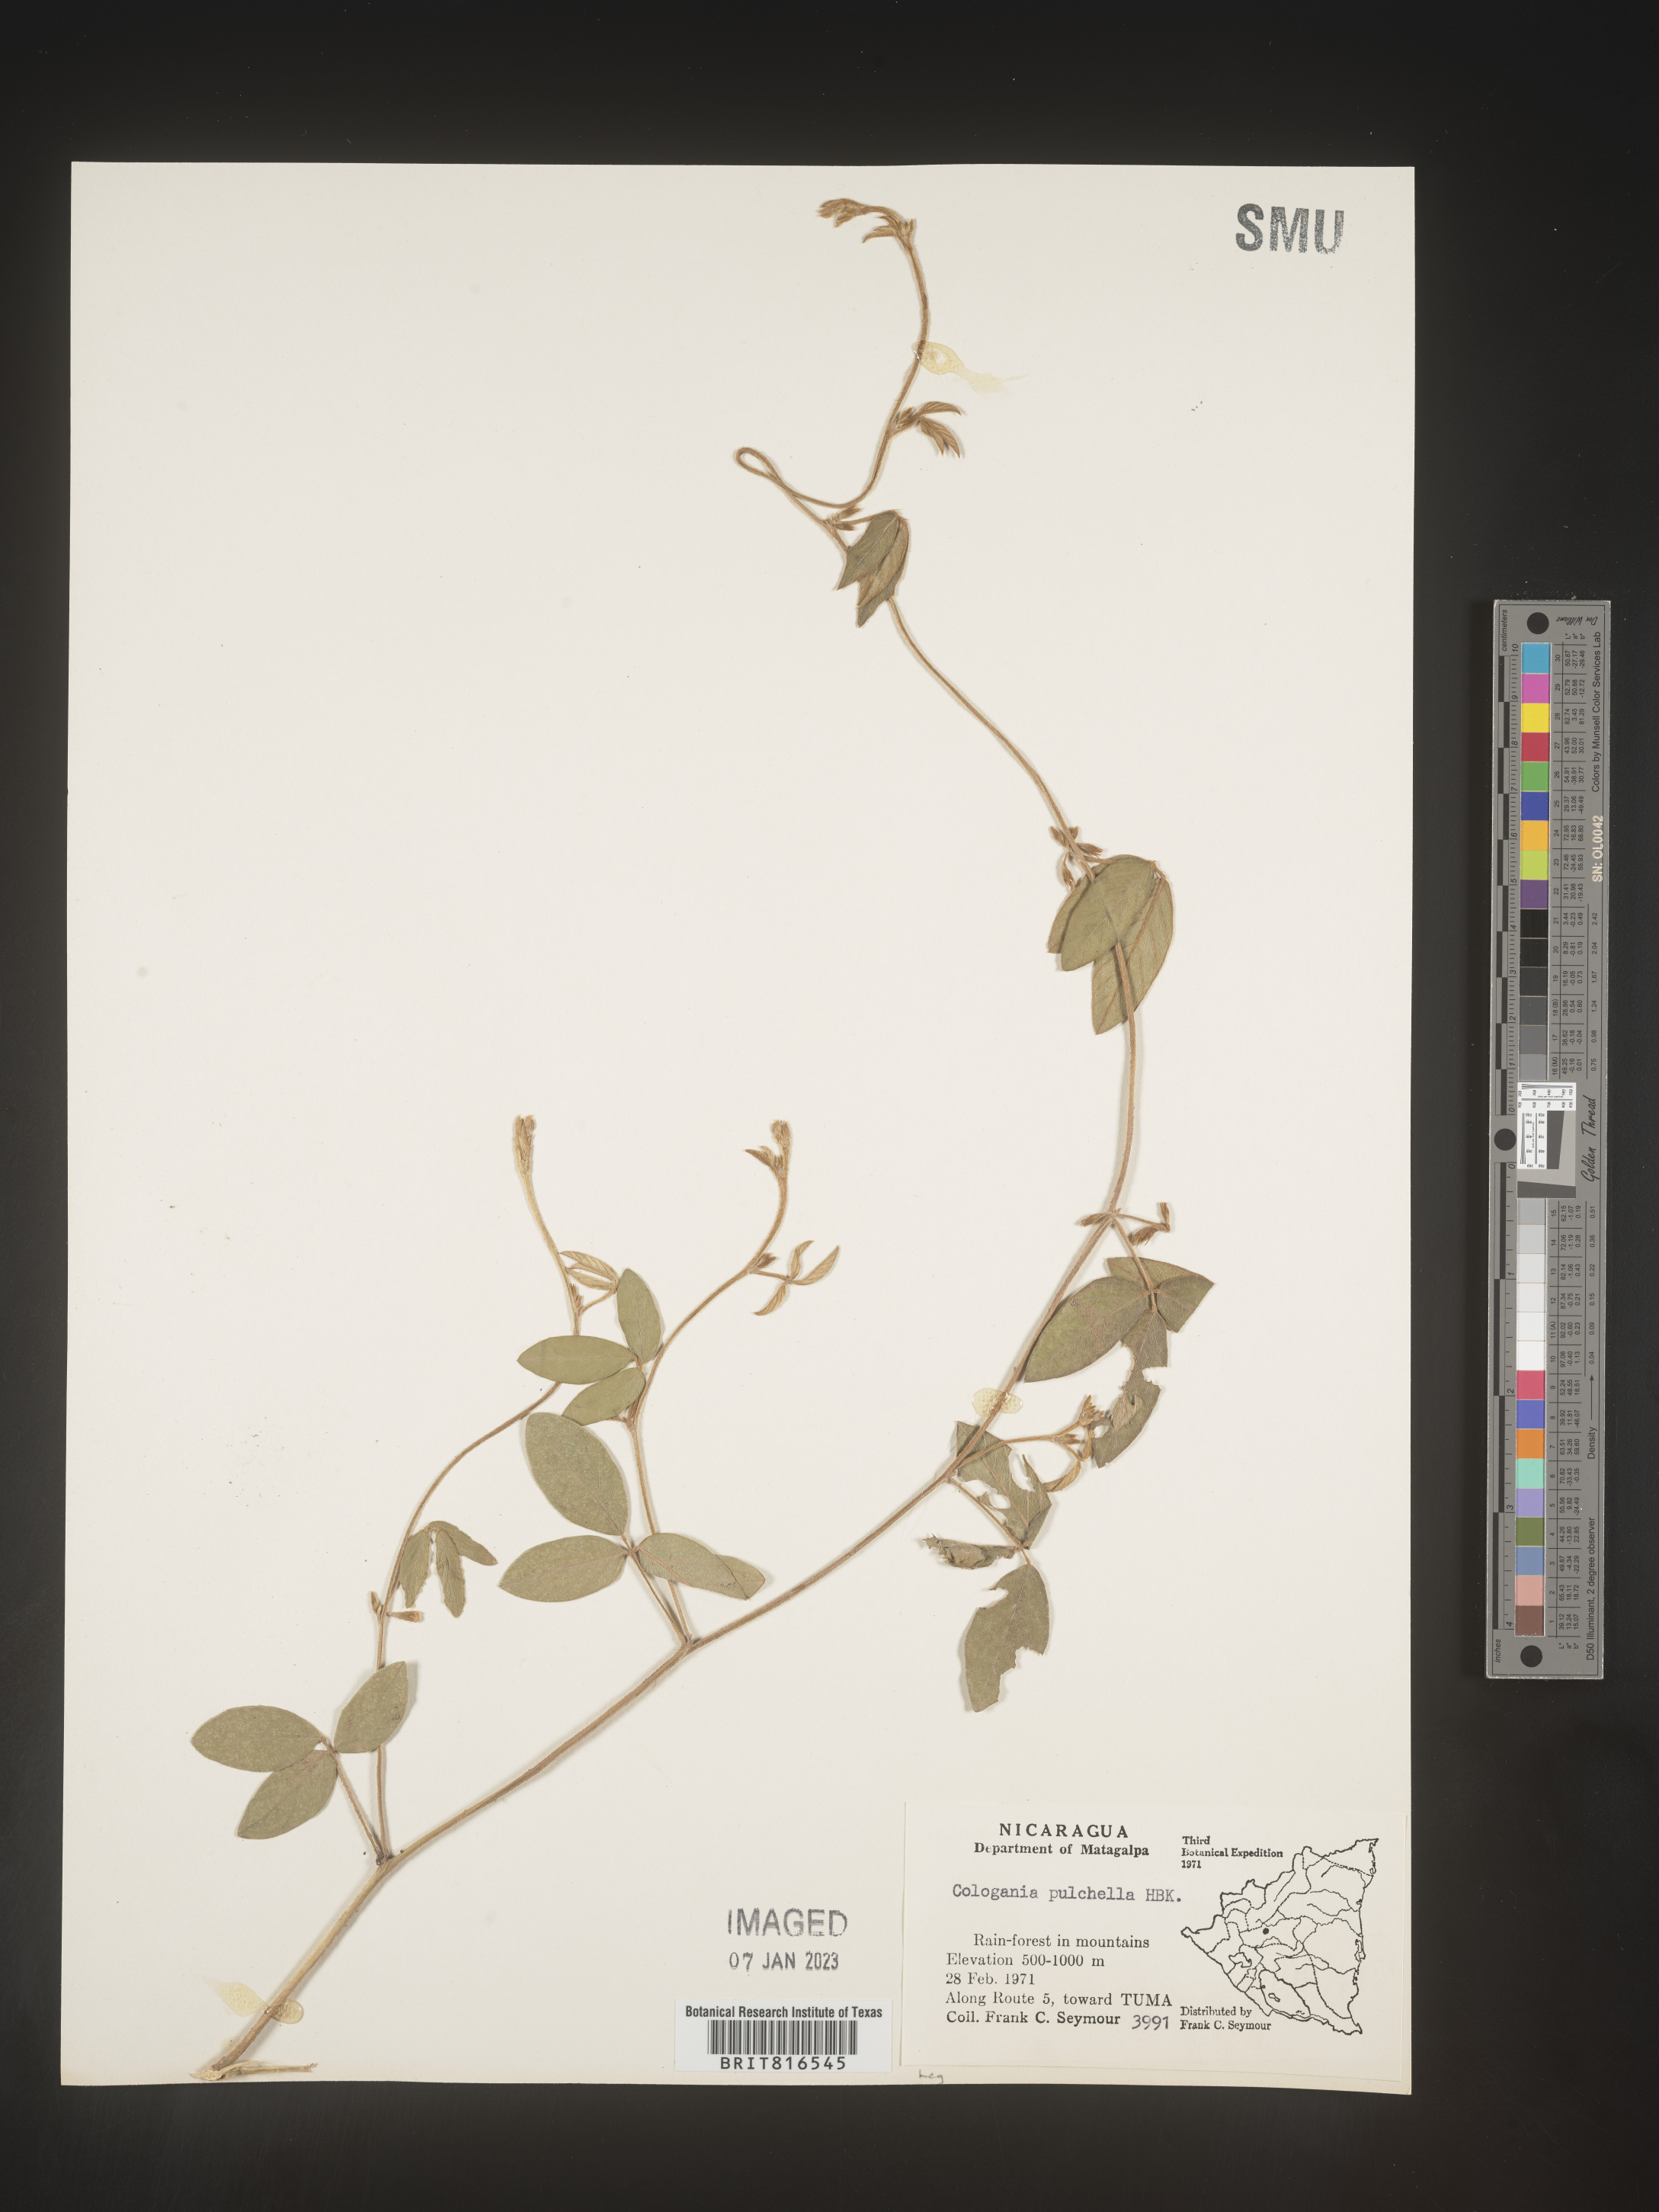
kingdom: Plantae
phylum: Tracheophyta
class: Magnoliopsida
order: Fabales
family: Fabaceae
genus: Cologania
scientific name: Cologania obovata
